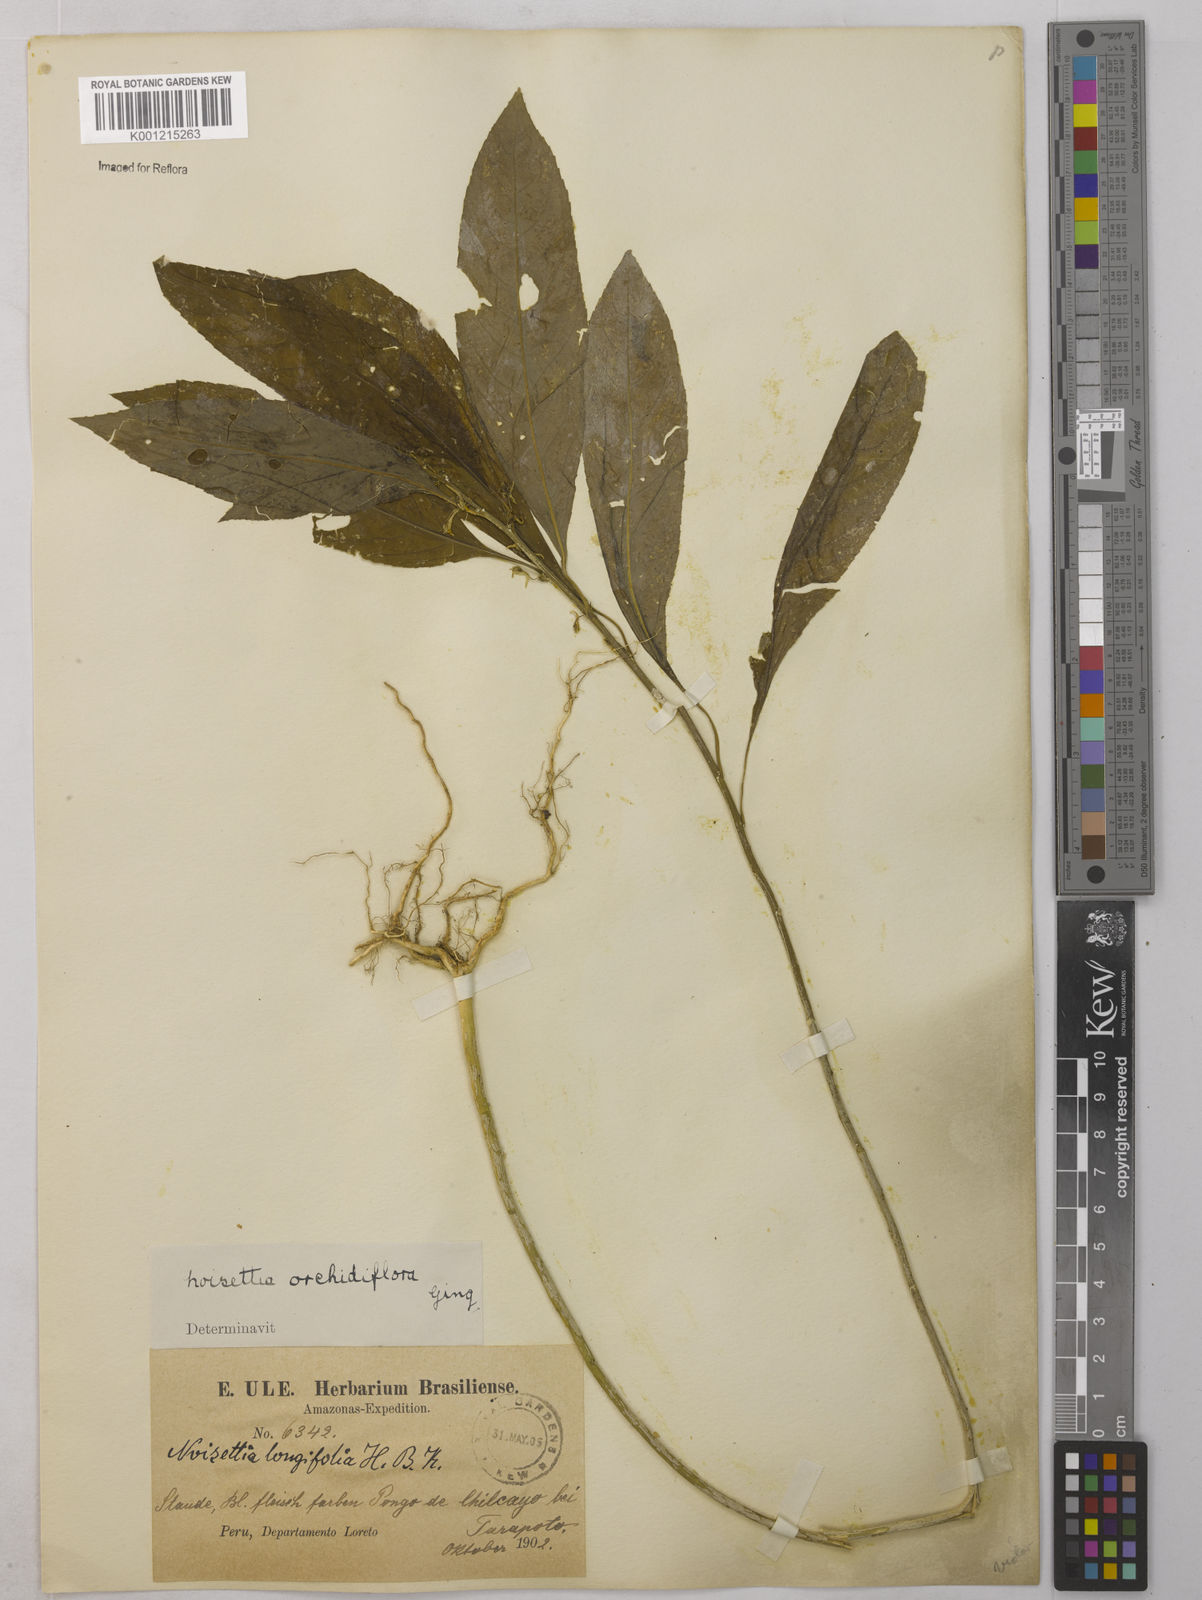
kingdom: Plantae
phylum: Tracheophyta
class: Magnoliopsida
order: Malpighiales
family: Violaceae
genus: Noisettia
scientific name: Noisettia orchidiflora
